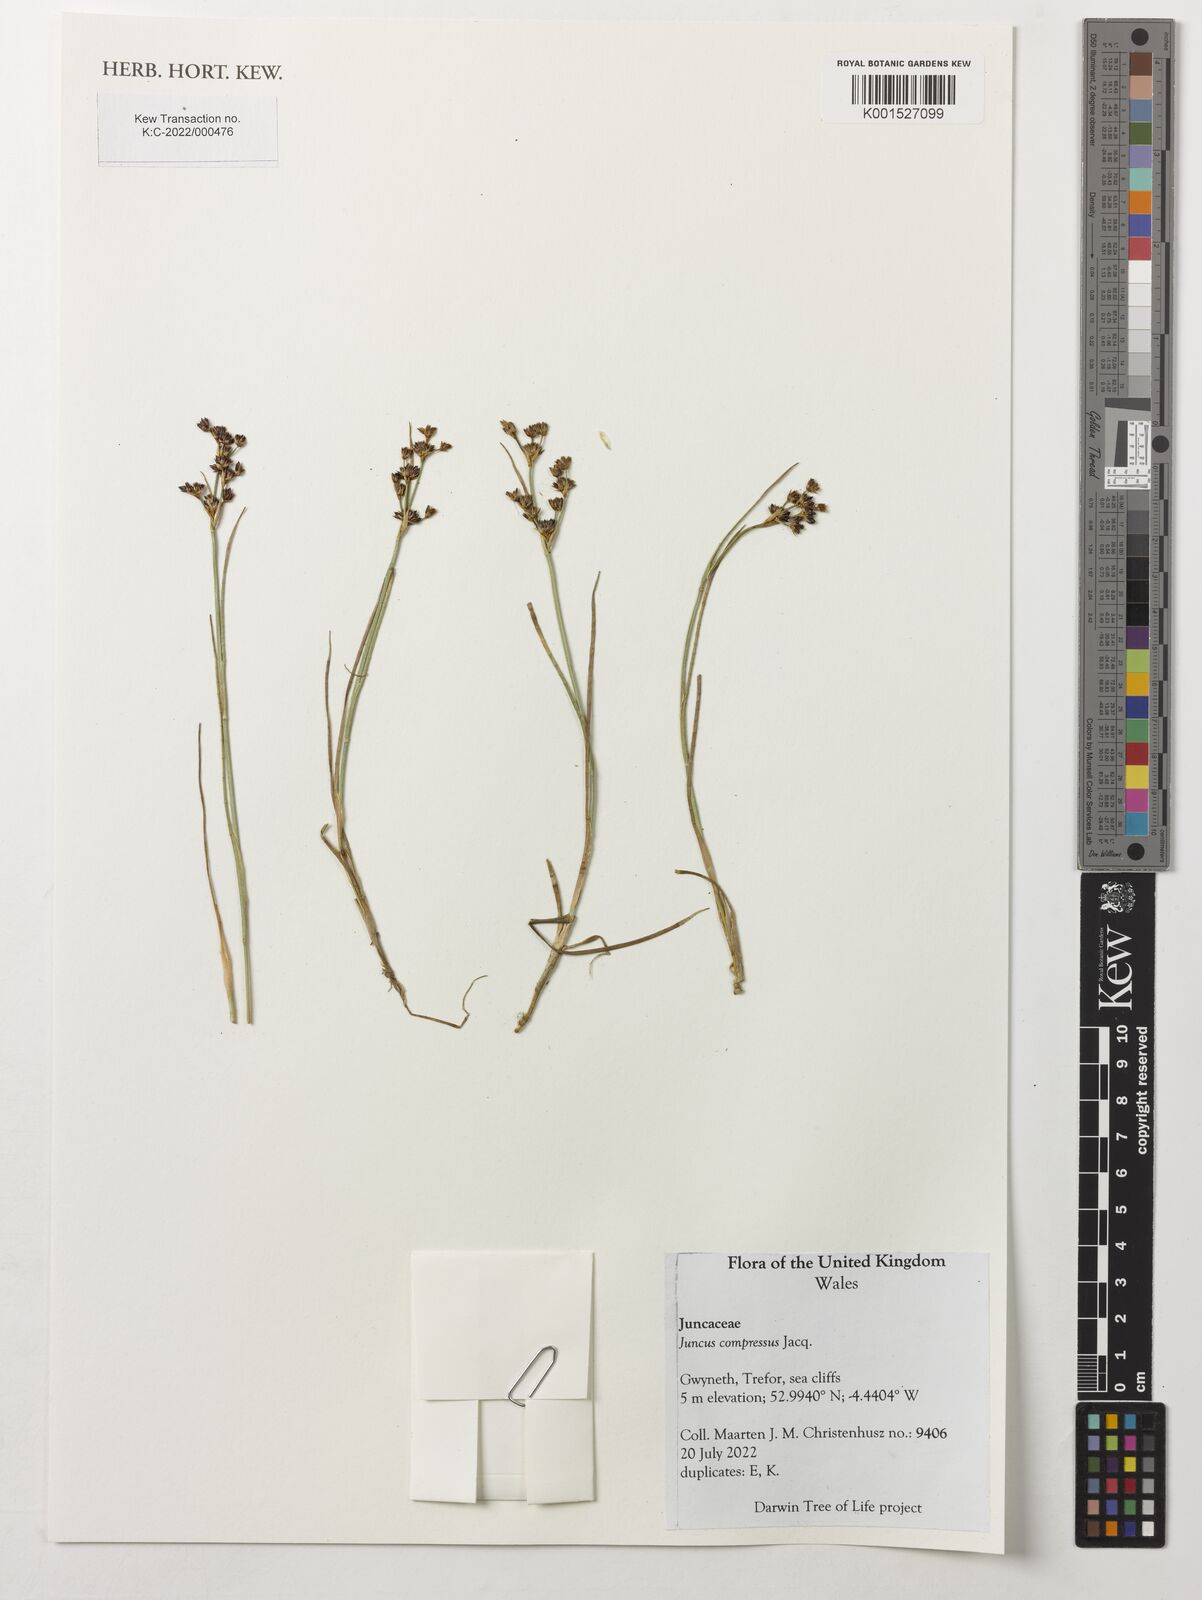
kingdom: Plantae
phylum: Tracheophyta
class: Liliopsida
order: Poales
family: Juncaceae
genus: Juncus
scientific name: Juncus compressus
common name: Round-fruited rush
